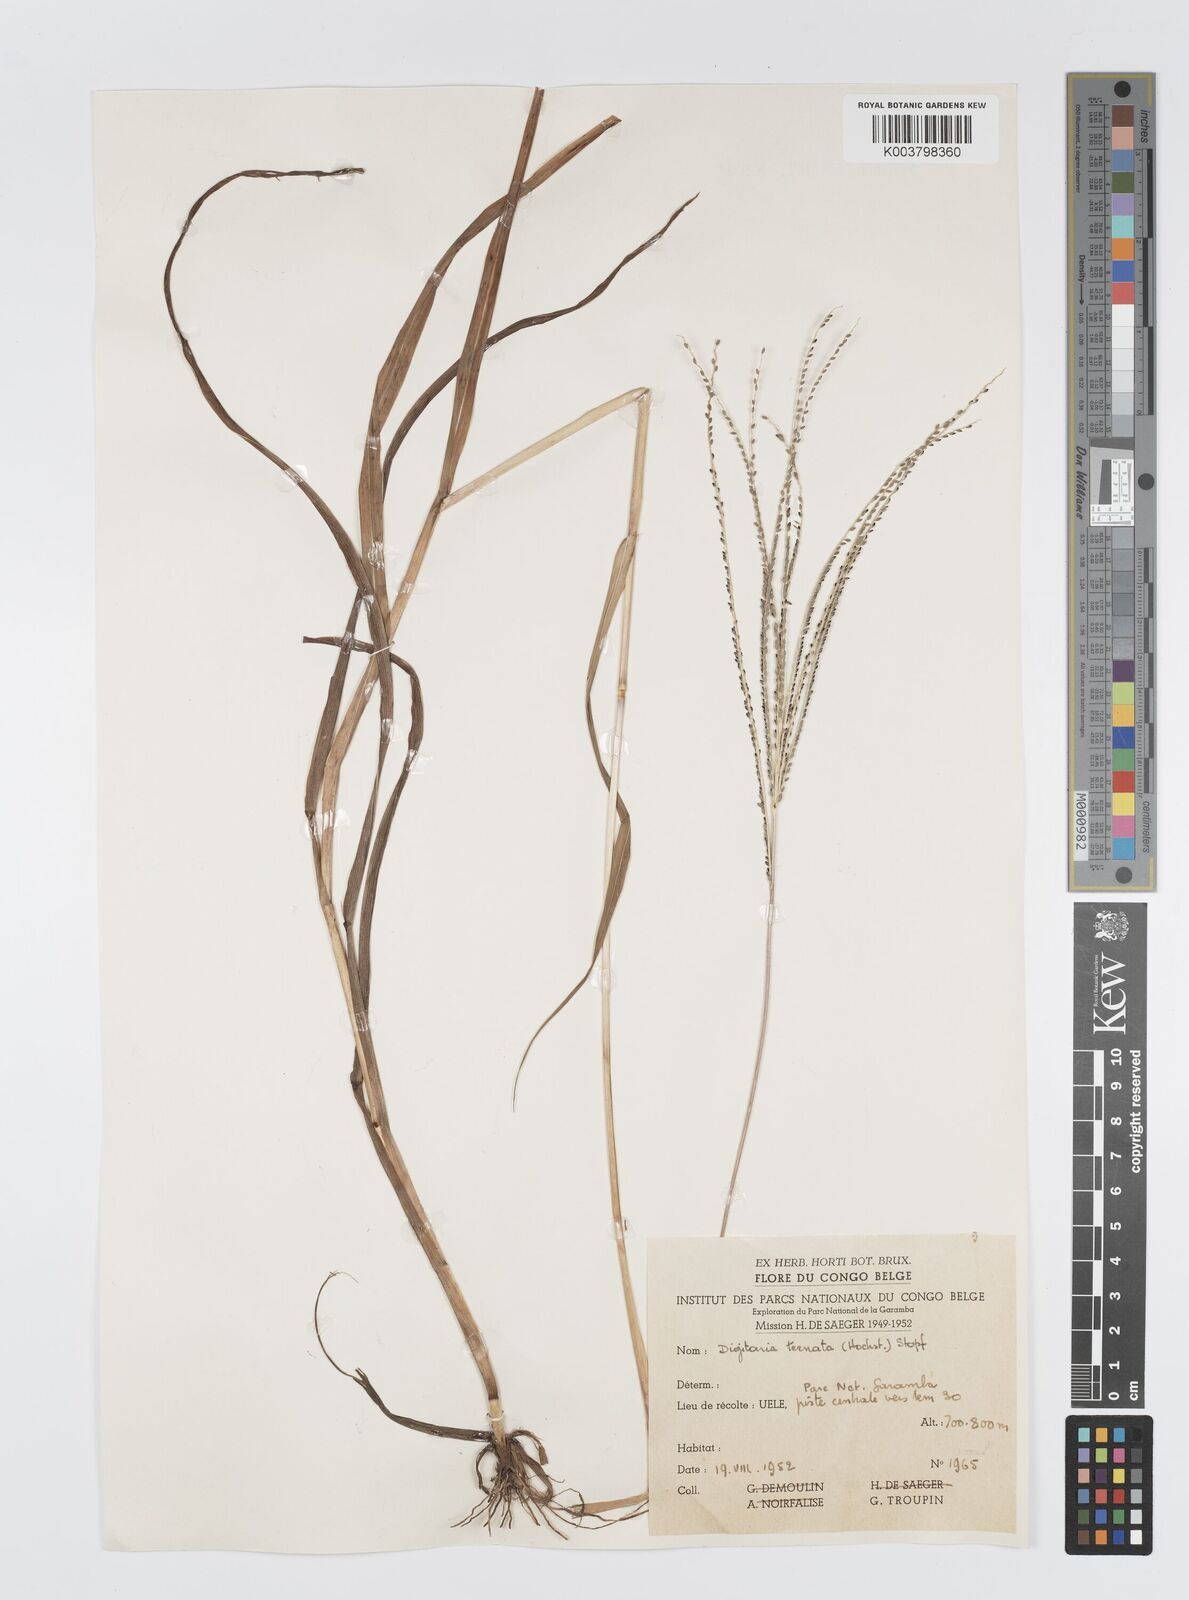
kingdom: Plantae
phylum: Tracheophyta
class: Liliopsida
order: Poales
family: Poaceae
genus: Digitaria
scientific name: Digitaria ternata
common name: Blackseed crabgrass
